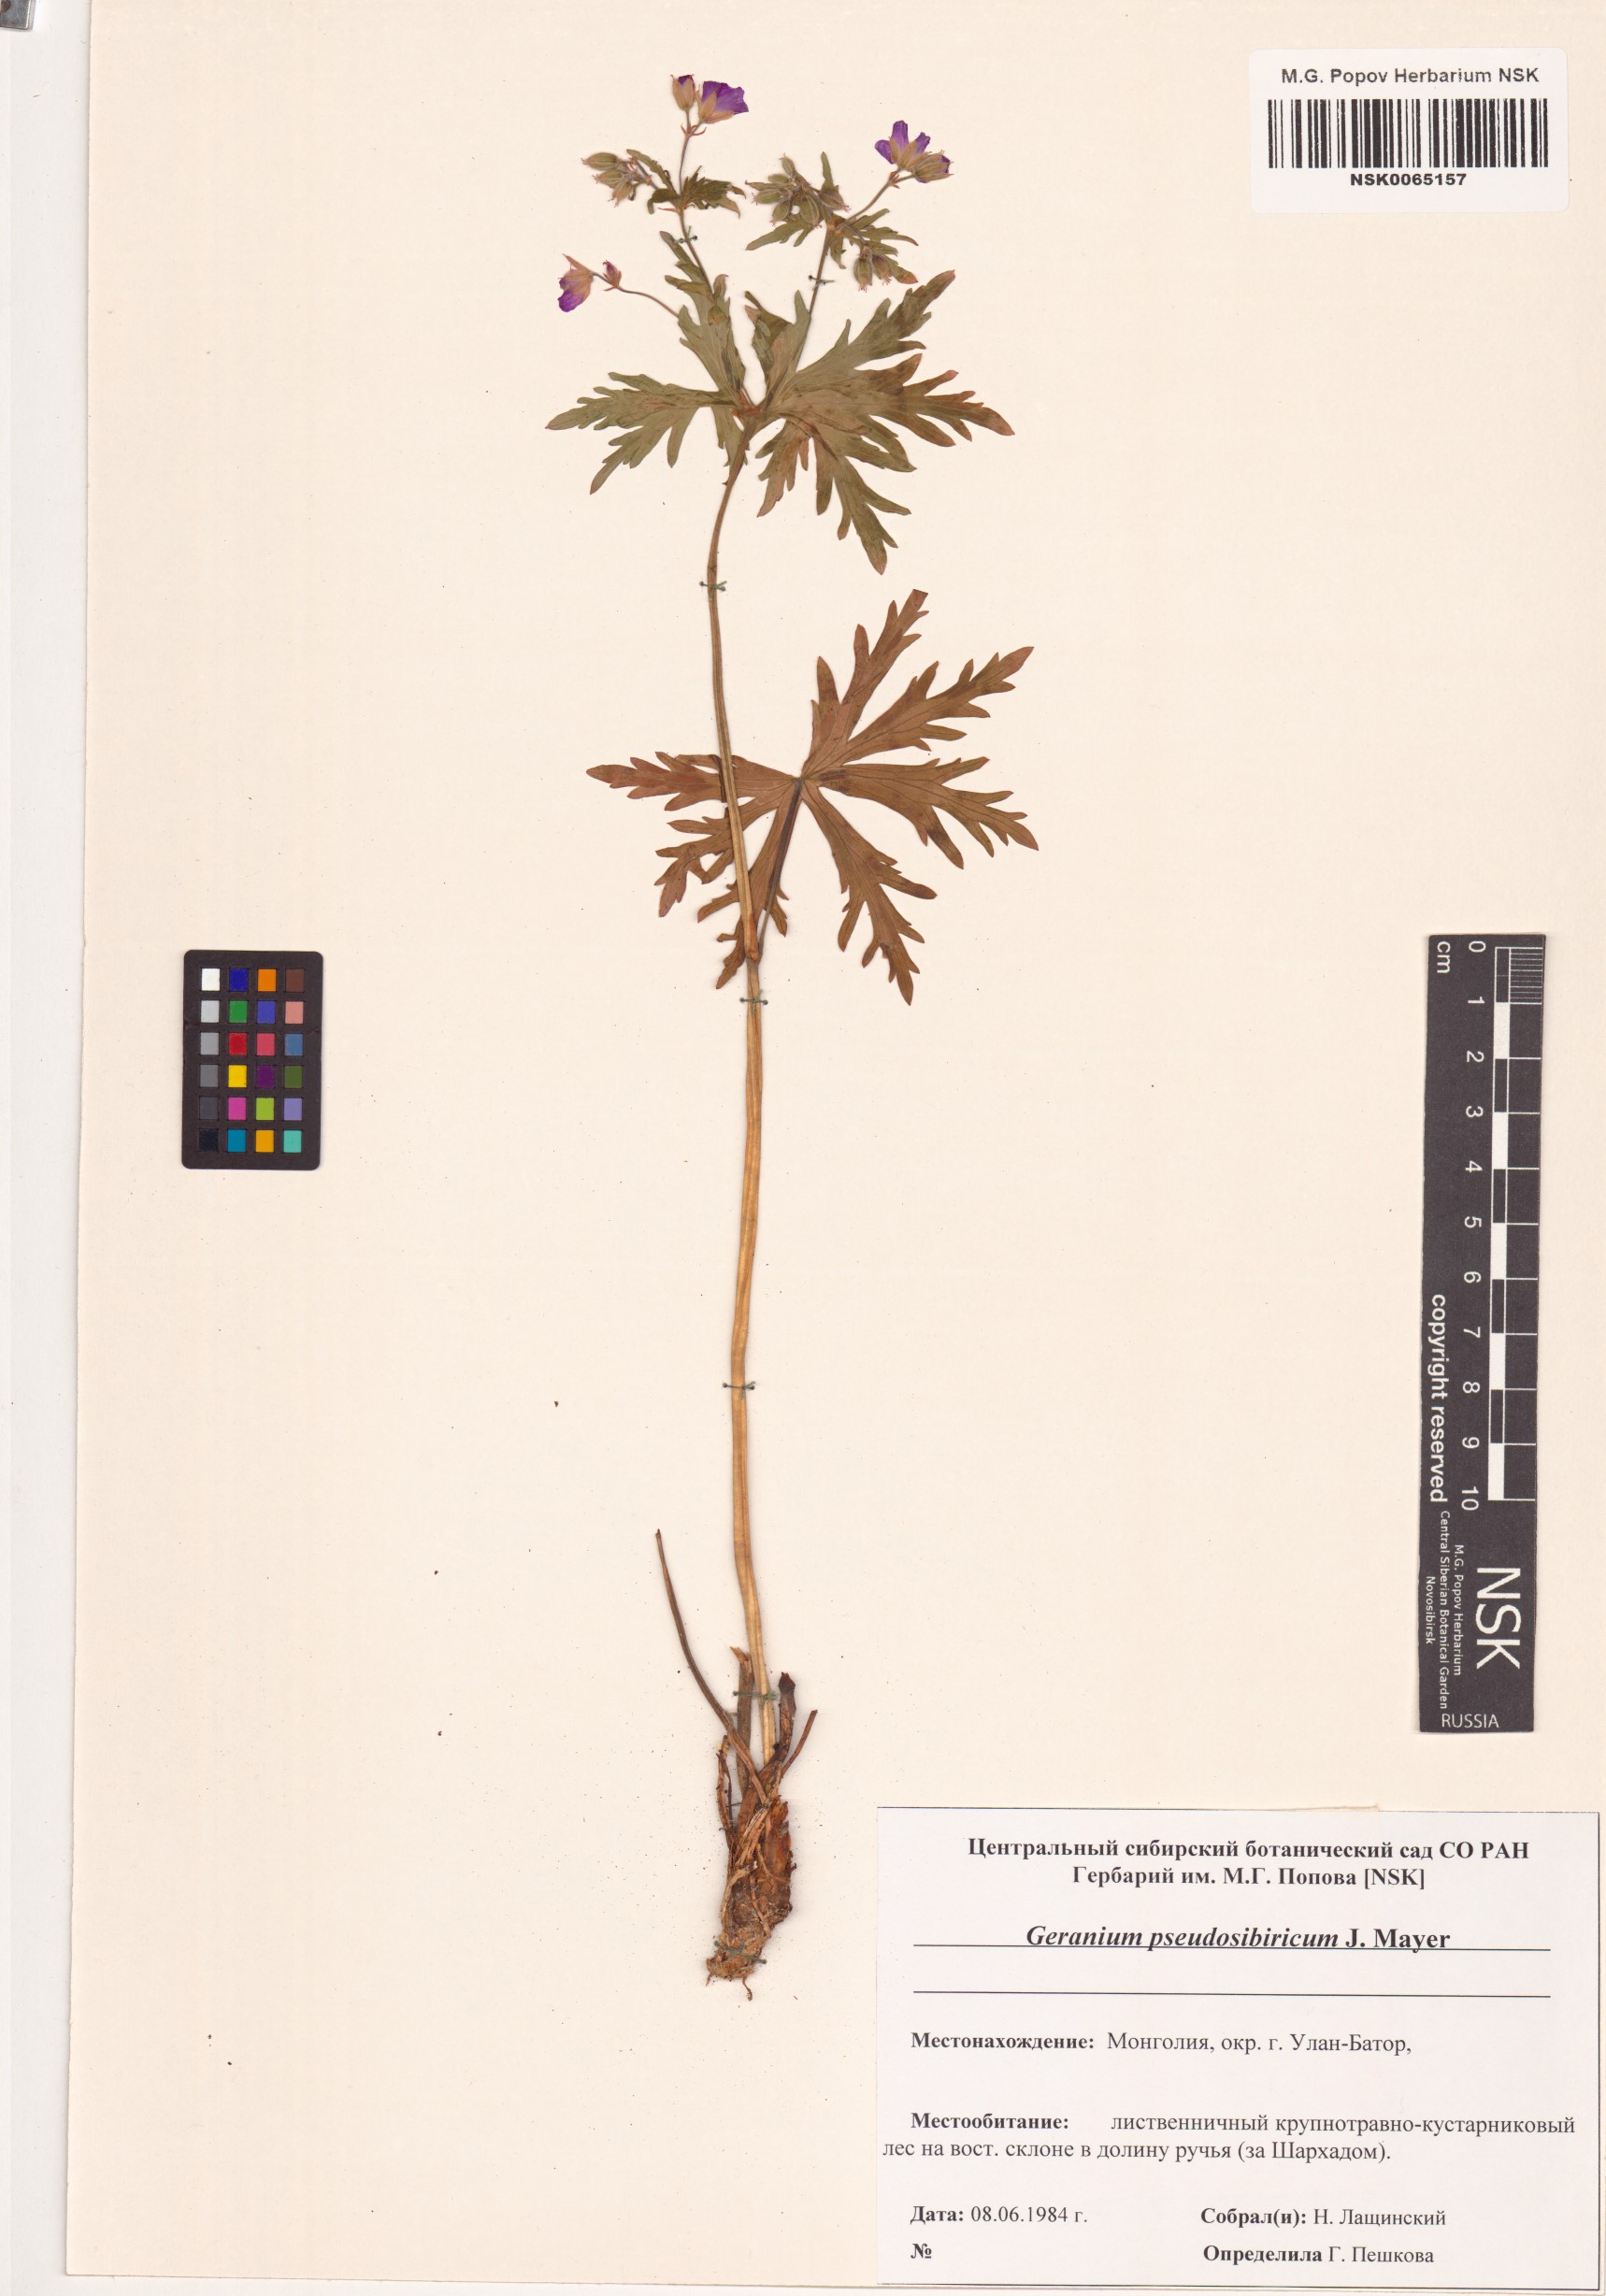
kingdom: Plantae
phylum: Tracheophyta
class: Magnoliopsida
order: Geraniales
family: Geraniaceae
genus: Geranium
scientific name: Geranium pseudosibiricum
